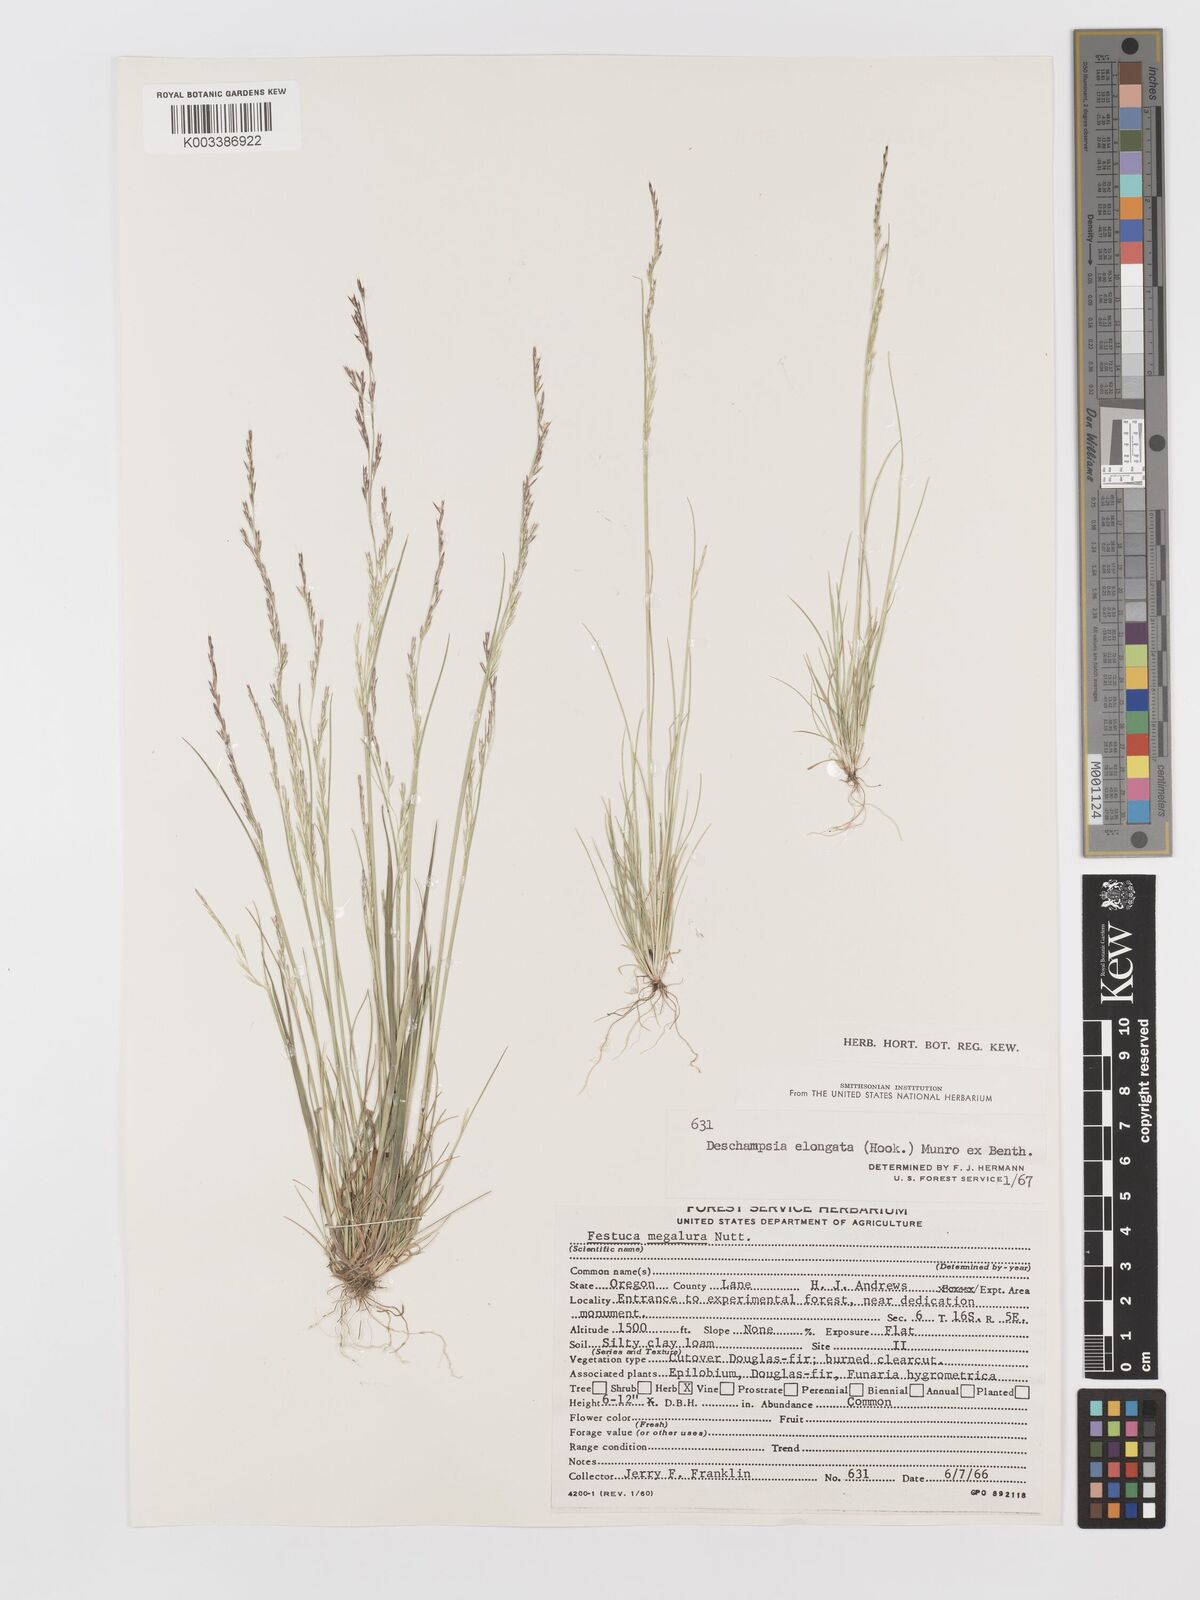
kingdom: Plantae
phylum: Tracheophyta
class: Liliopsida
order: Poales
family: Poaceae
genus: Deschampsia
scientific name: Deschampsia elongata
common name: Slender hairgrass
